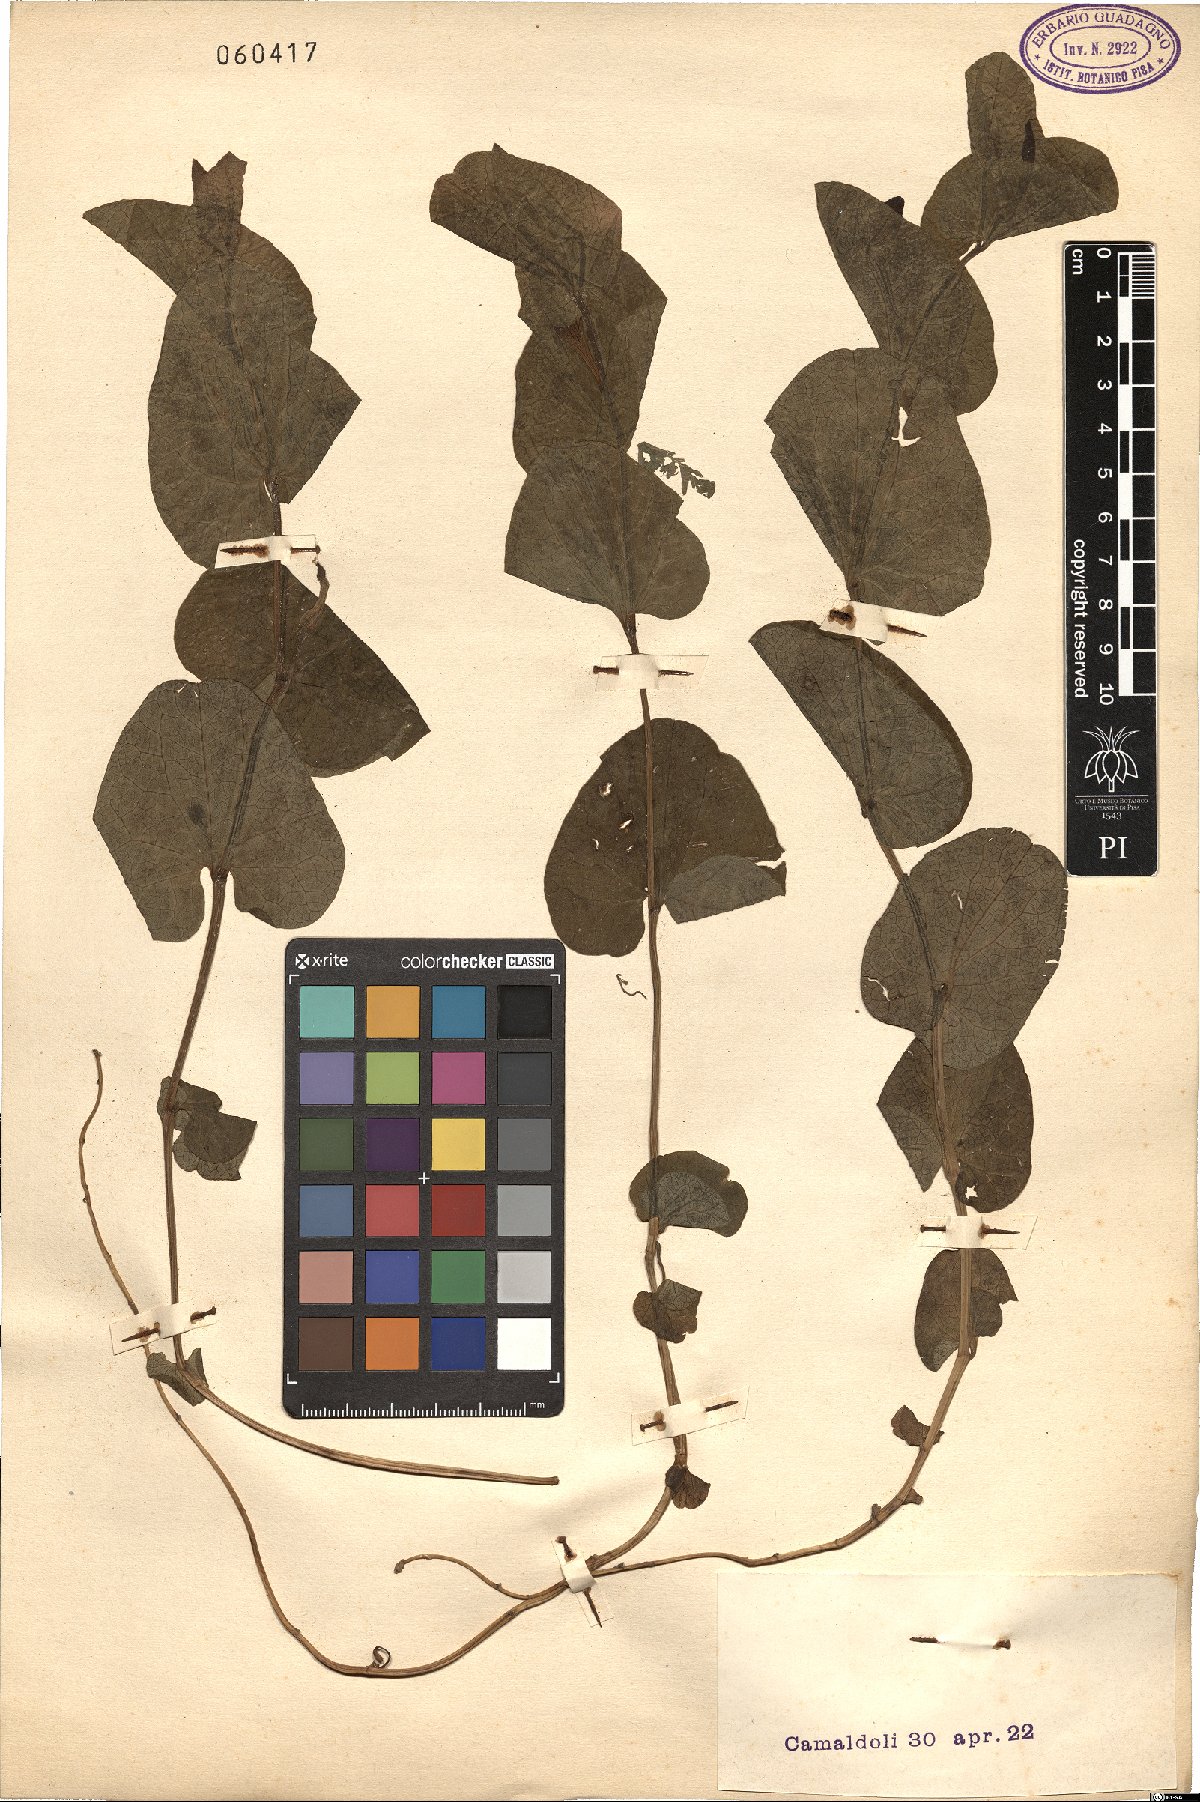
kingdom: Plantae
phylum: Tracheophyta
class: Magnoliopsida
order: Piperales
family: Aristolochiaceae
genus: Aristolochia
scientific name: Aristolochia rotunda
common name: Smearwort
